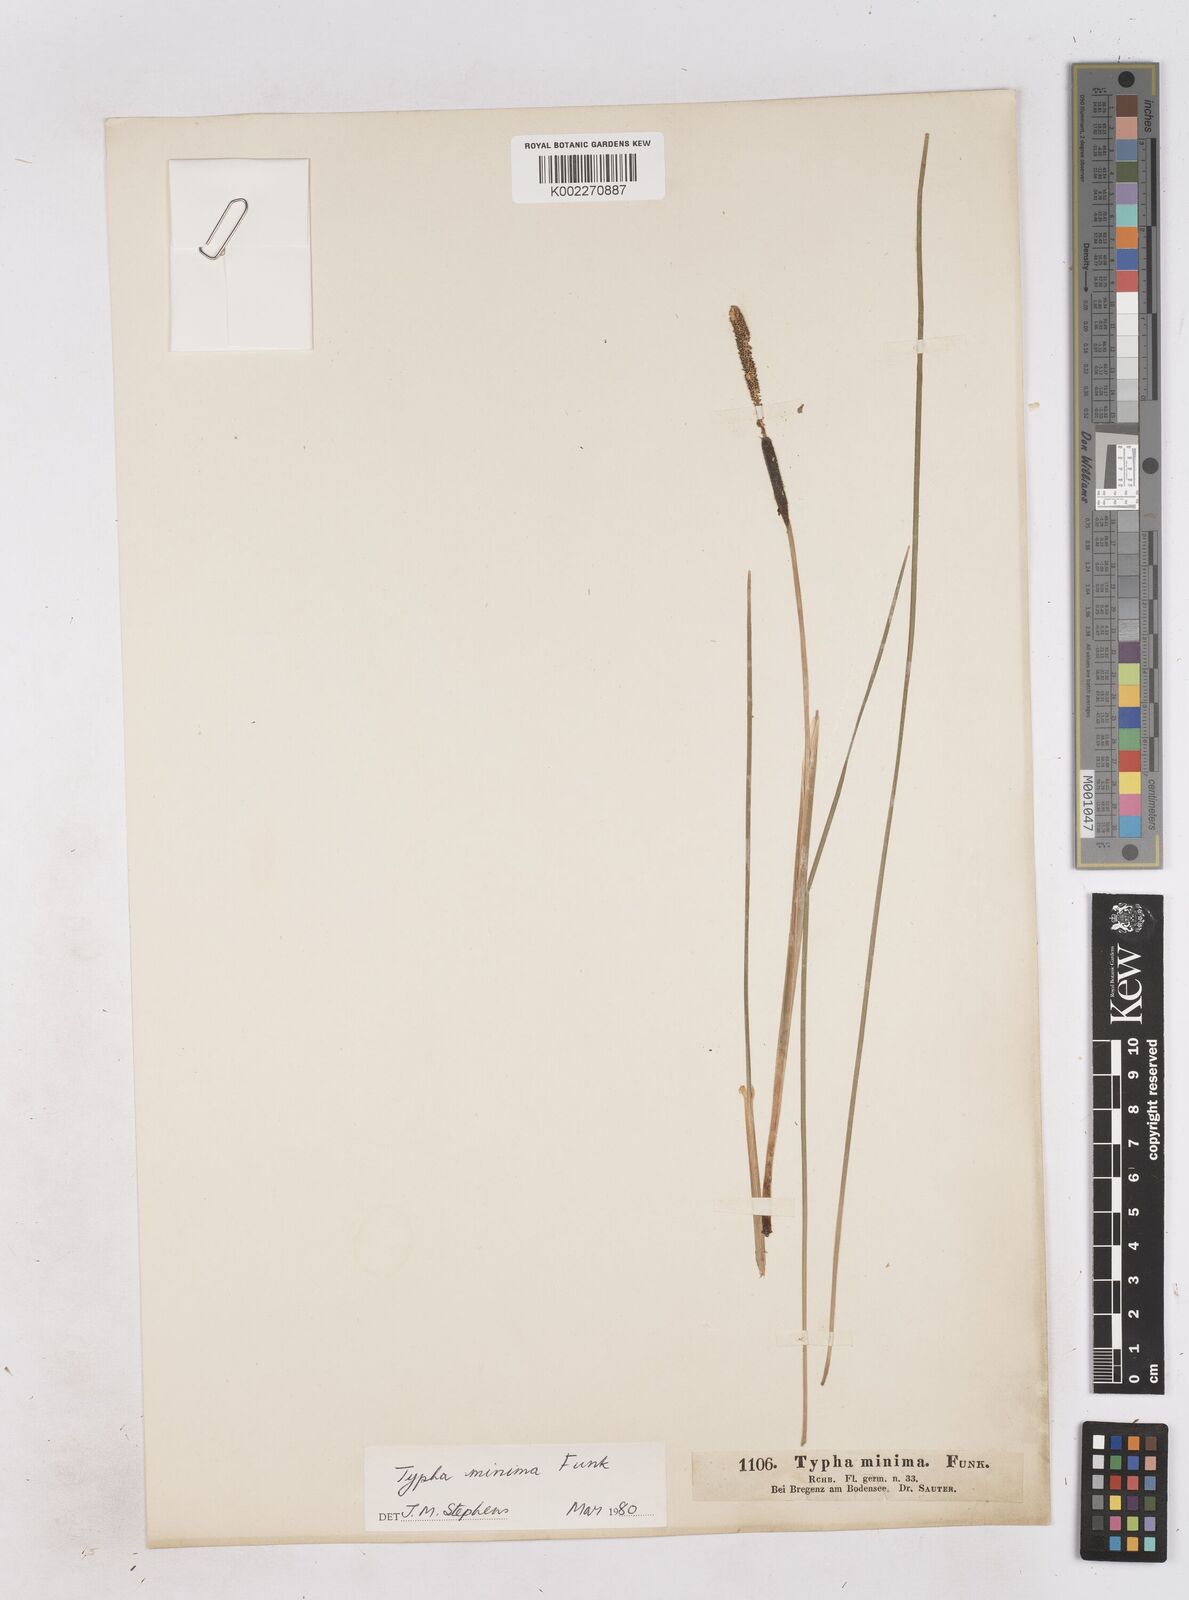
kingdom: Plantae
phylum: Tracheophyta
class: Liliopsida
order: Poales
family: Typhaceae
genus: Typha
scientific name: Typha minima
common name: Dwarf bulrush
